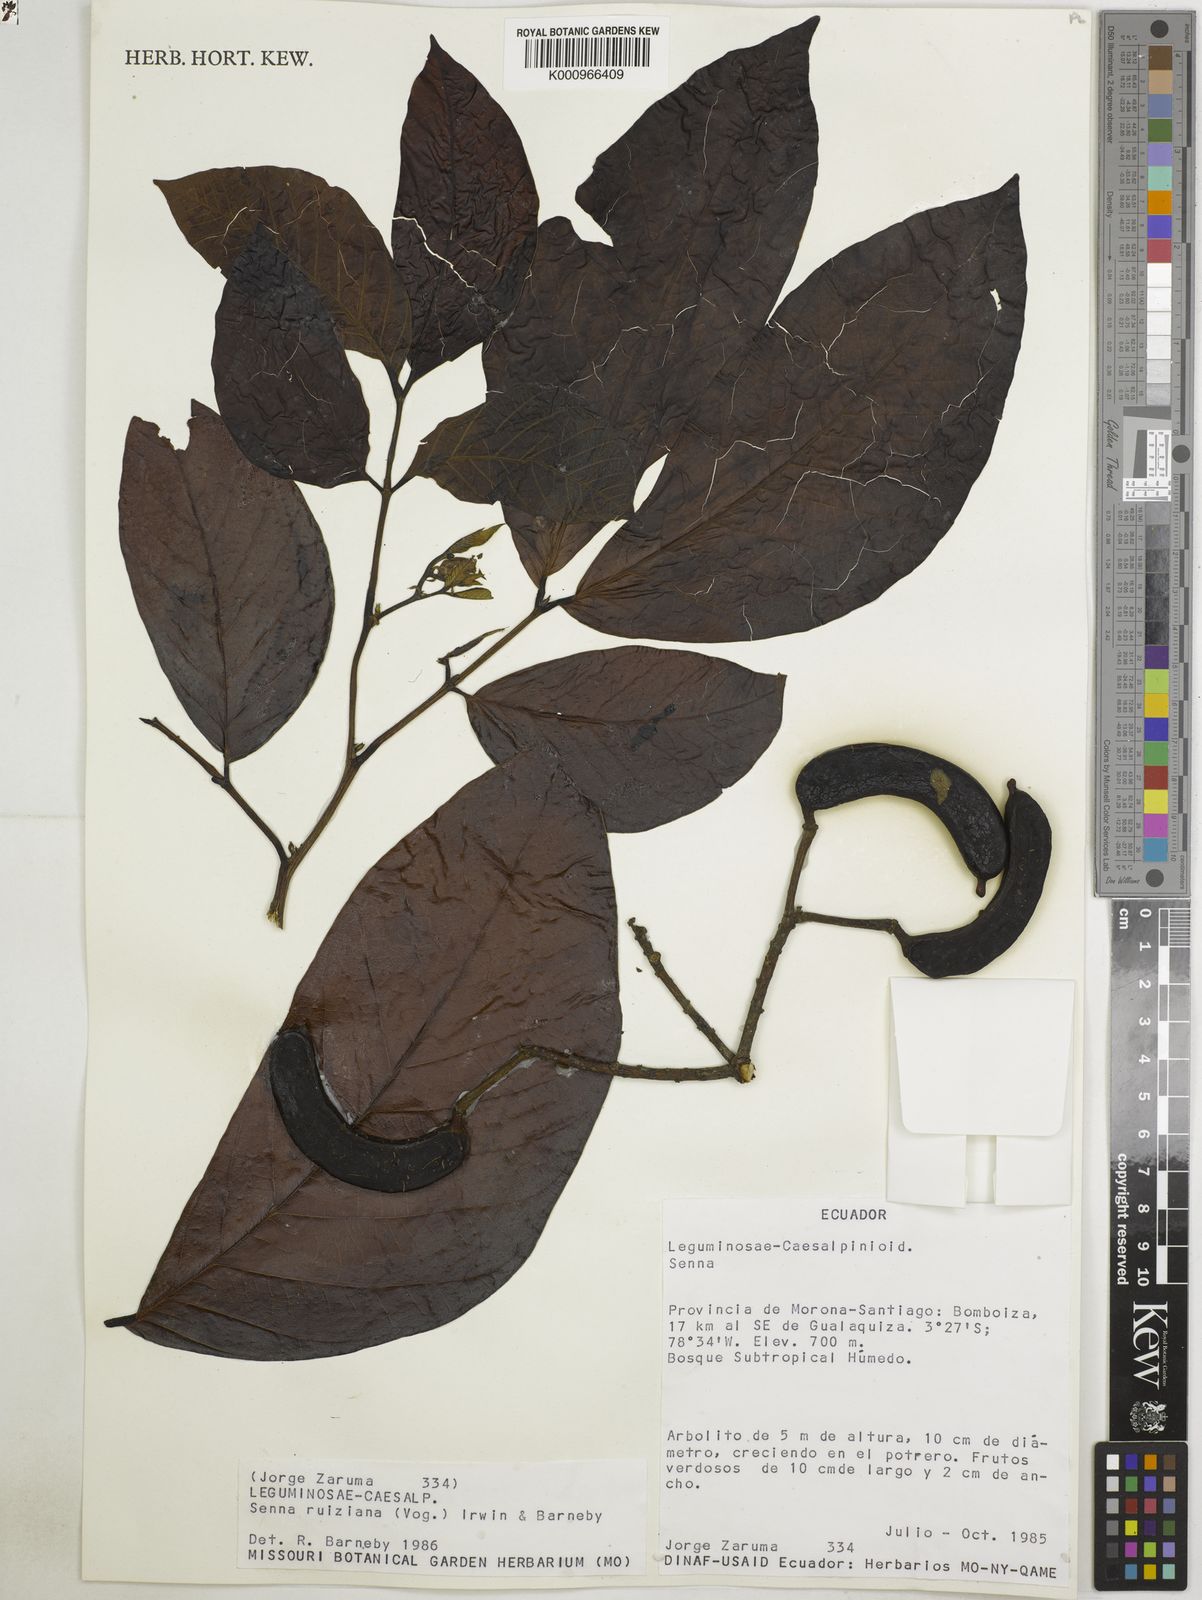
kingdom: Plantae
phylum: Tracheophyta
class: Magnoliopsida
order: Fabales
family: Fabaceae
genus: Senna
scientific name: Senna ruiziana
